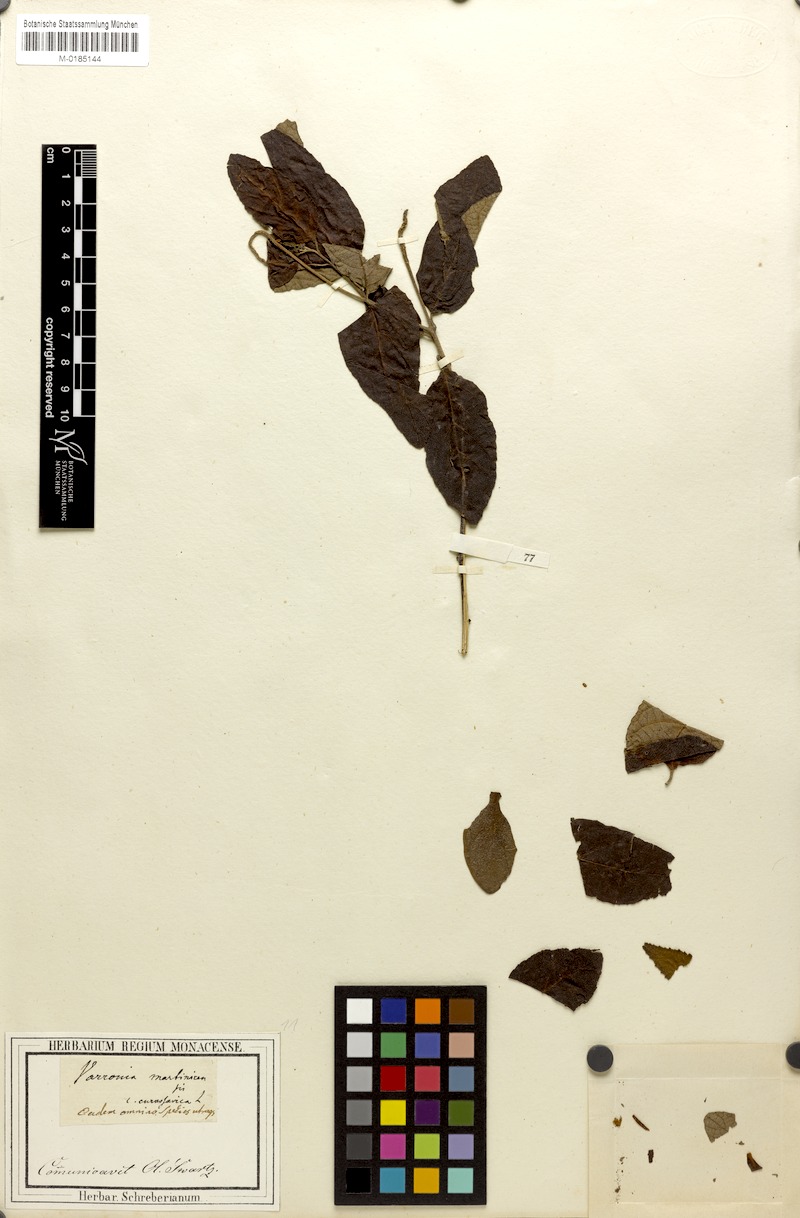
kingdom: Plantae
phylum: Tracheophyta
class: Magnoliopsida
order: Boraginales
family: Cordiaceae
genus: Varronia
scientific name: Varronia curassavica
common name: Black sage
